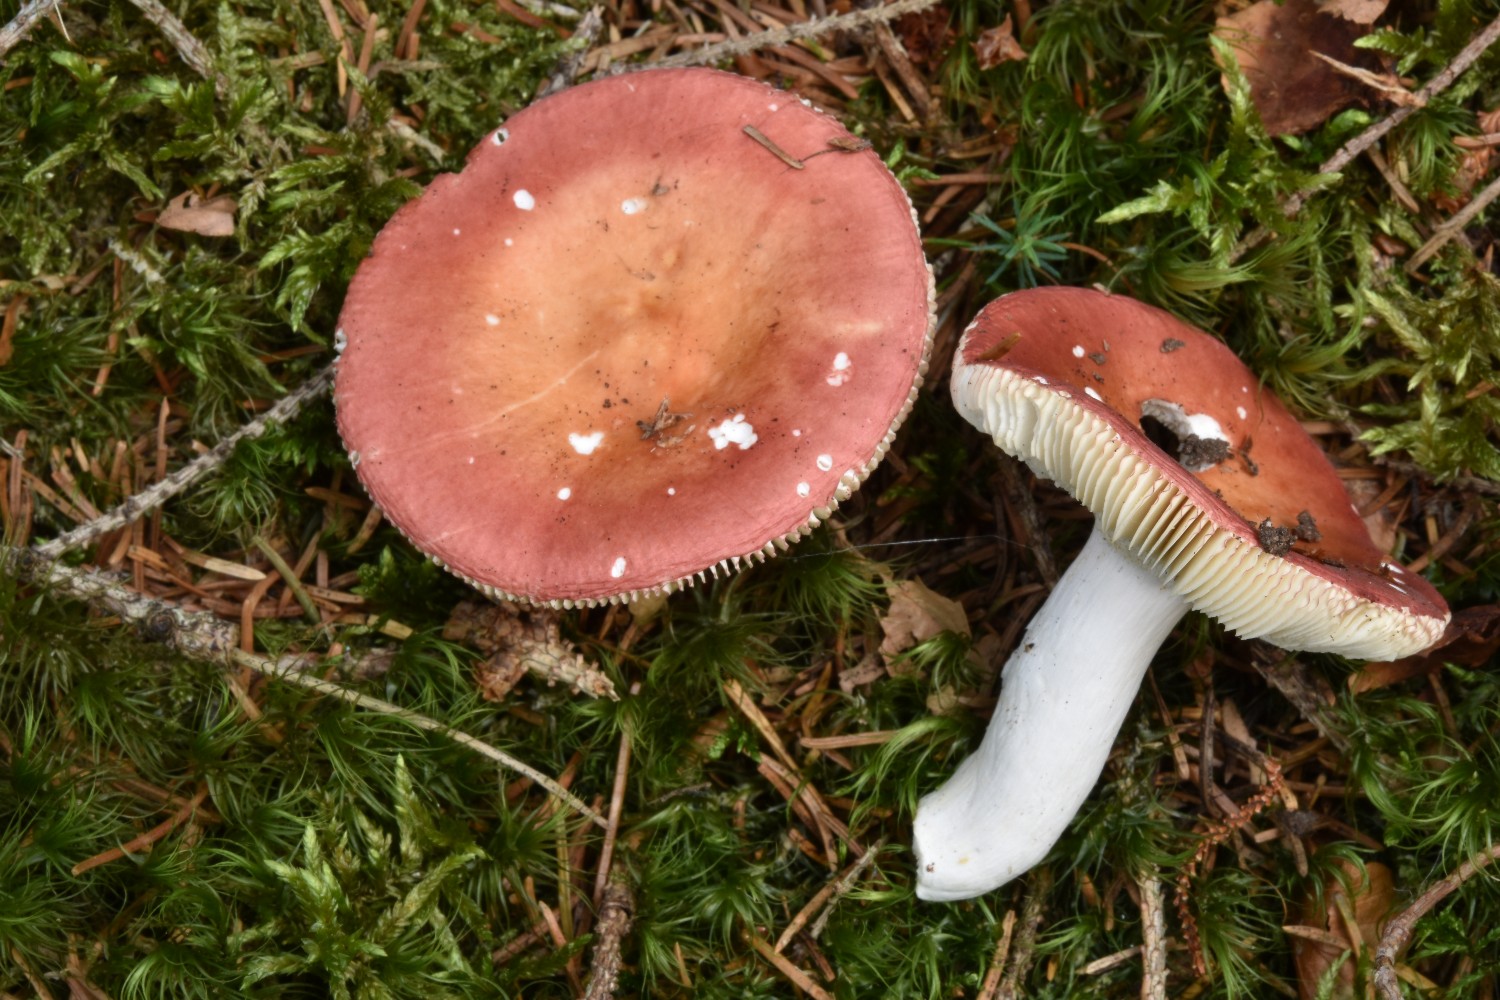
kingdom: Fungi
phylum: Basidiomycota
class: Agaricomycetes
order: Russulales
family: Russulaceae
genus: Russula
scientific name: Russula velenovskyi
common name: orangerød skørhat
